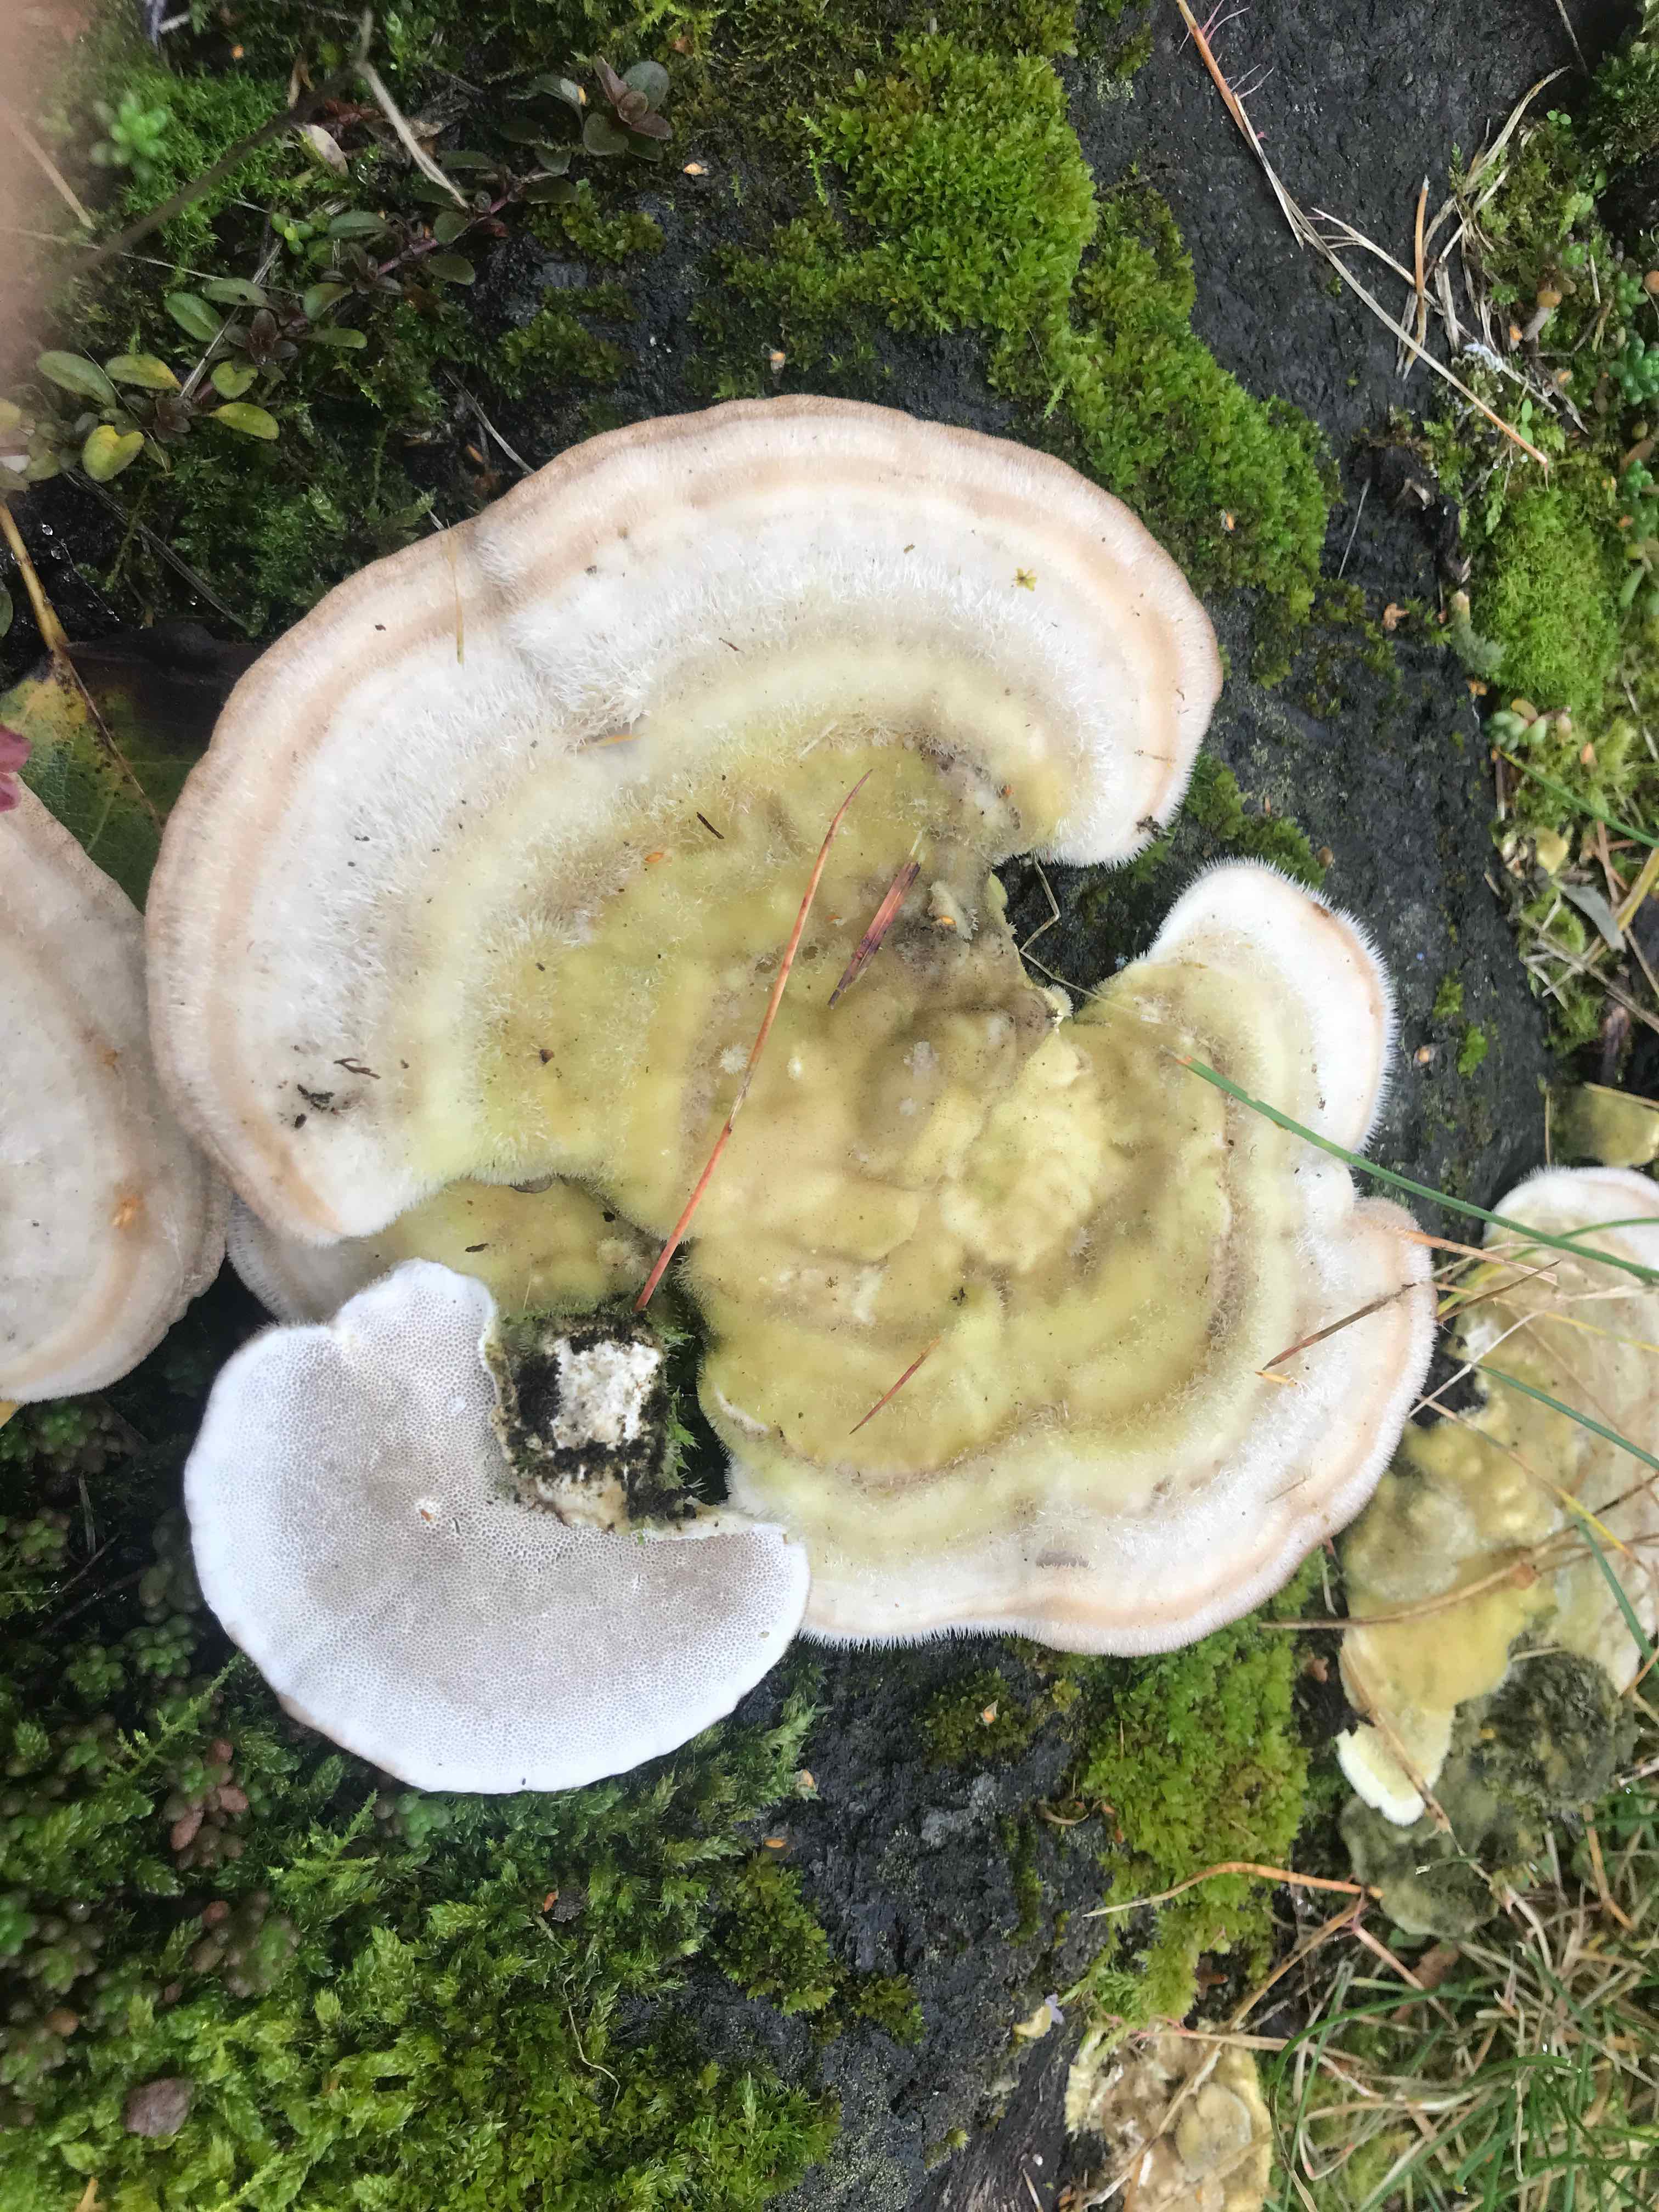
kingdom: Fungi
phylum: Basidiomycota
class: Agaricomycetes
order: Polyporales
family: Polyporaceae
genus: Trametes
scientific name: Trametes hirsuta
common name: håret læderporesvamp
